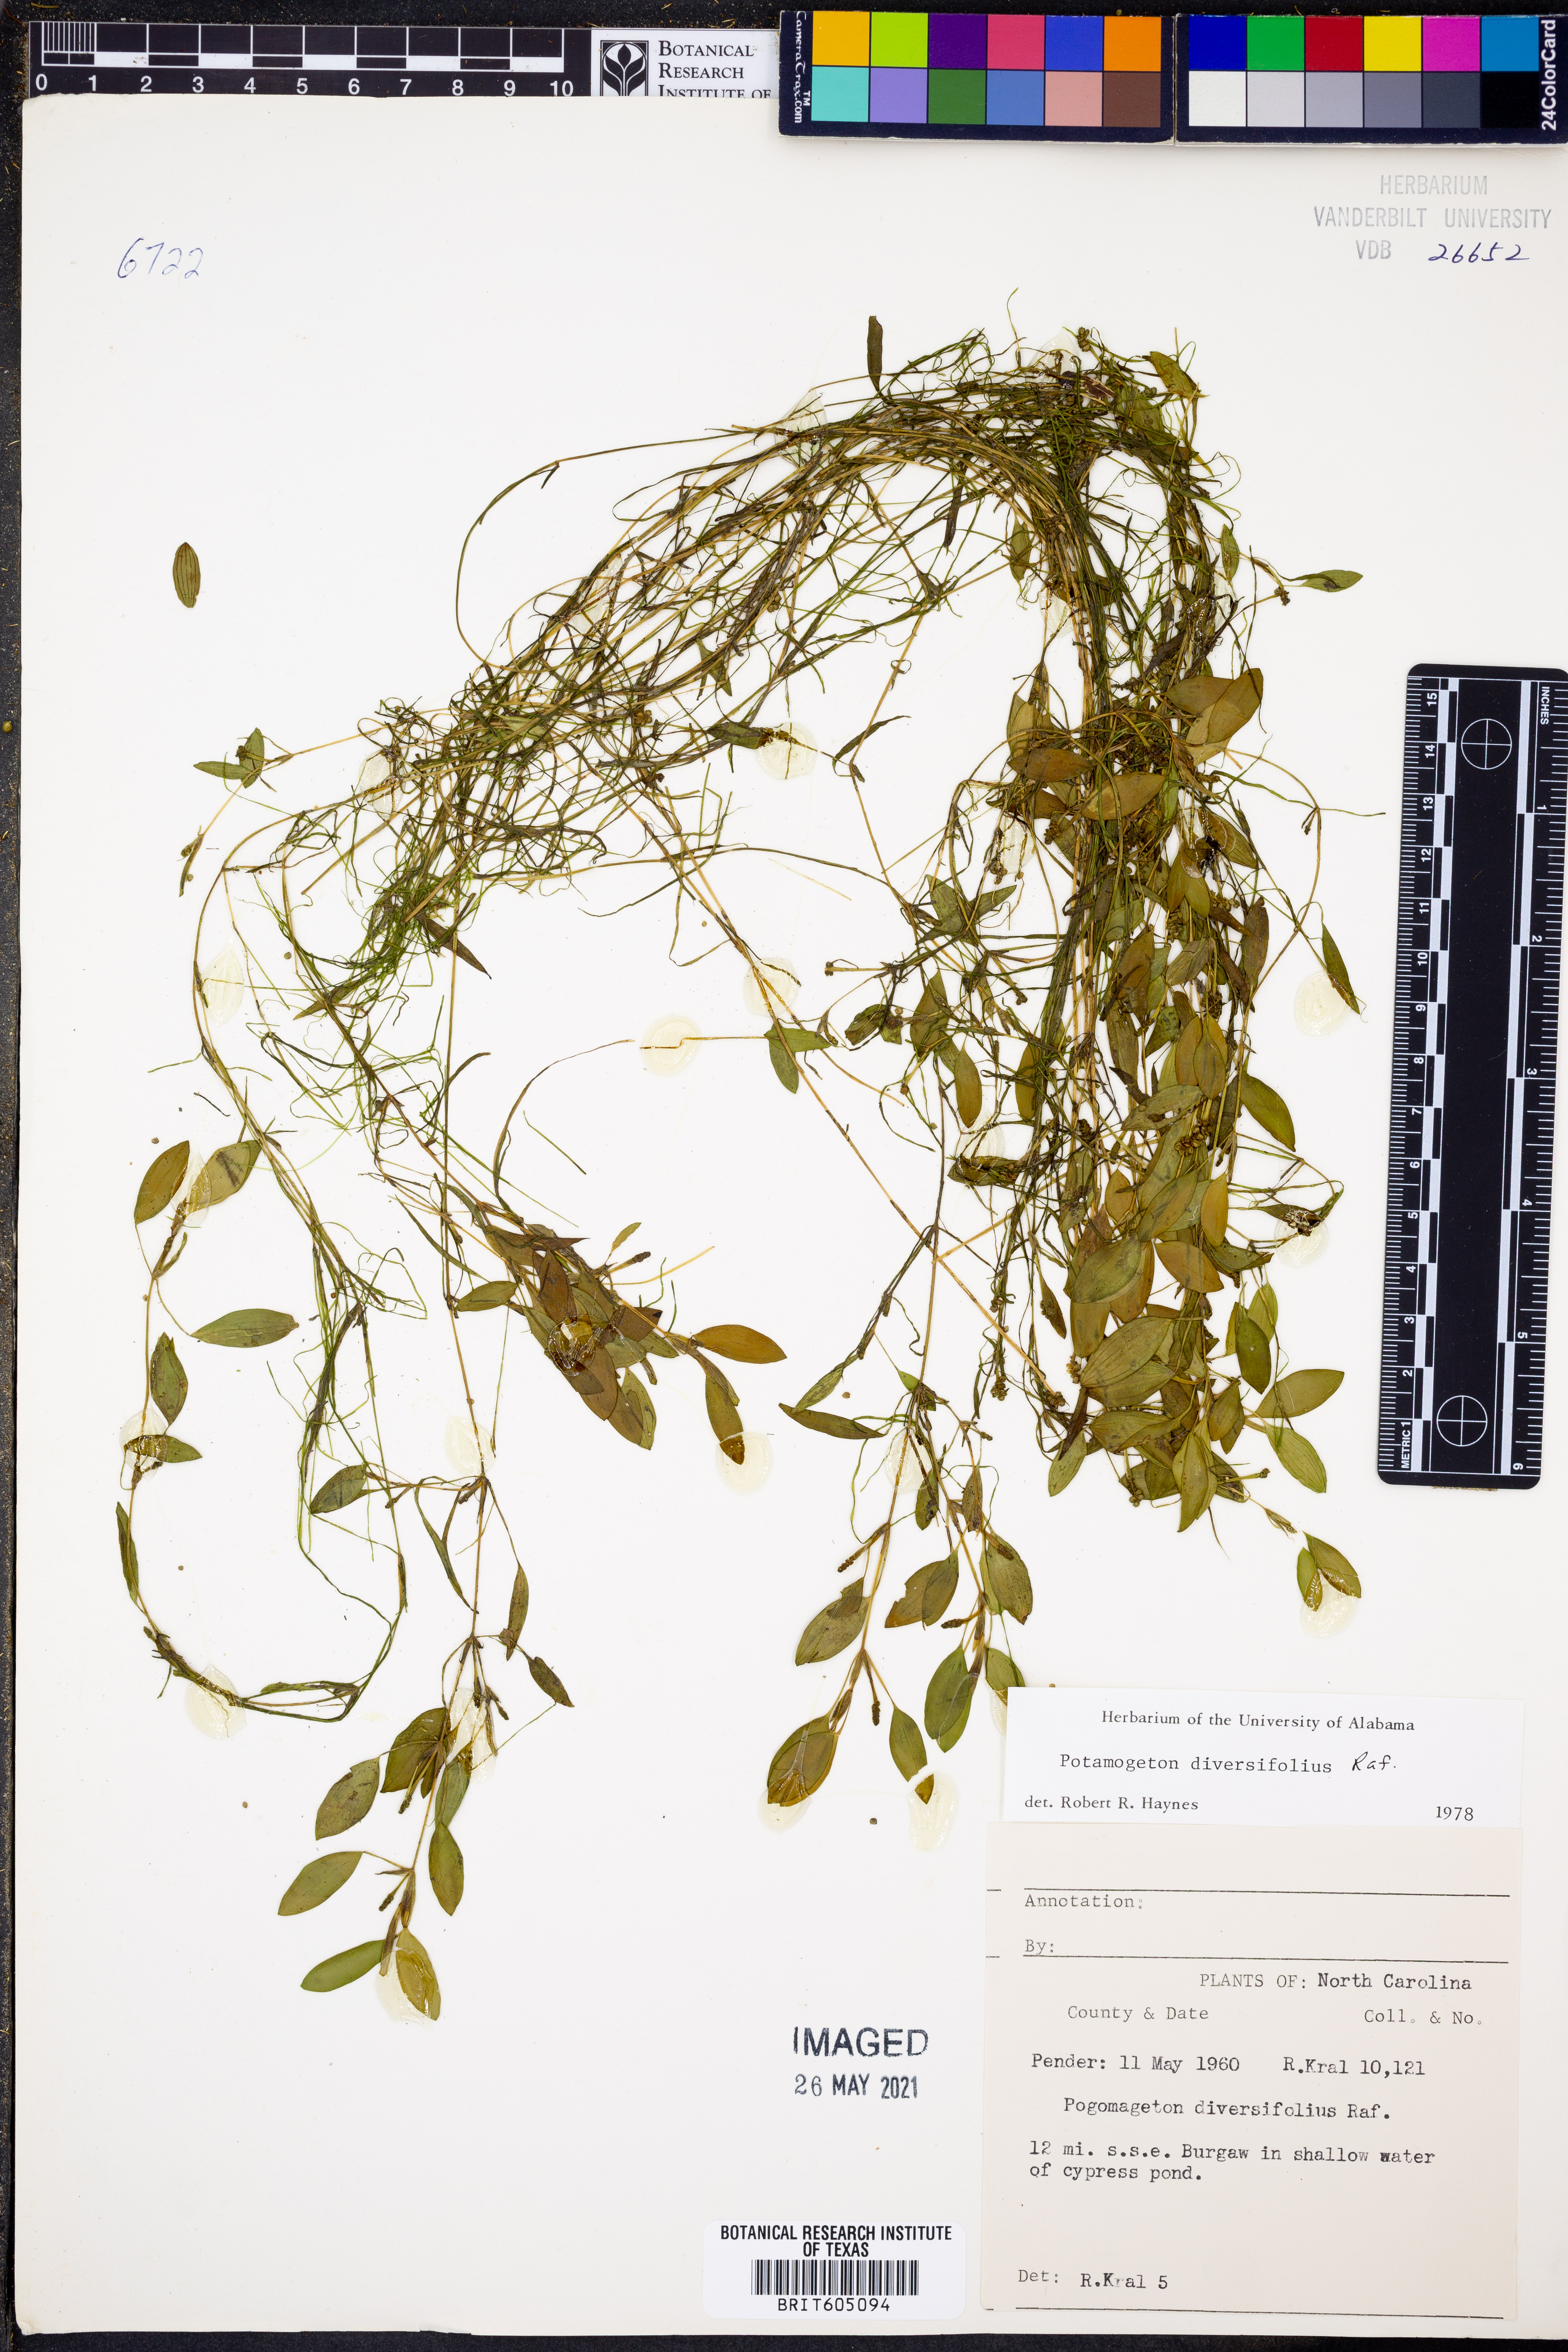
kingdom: Plantae
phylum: Tracheophyta
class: Liliopsida
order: Alismatales
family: Potamogetonaceae
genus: Potamogeton
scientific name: Potamogeton diversifolius
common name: Water-thread pondweed
